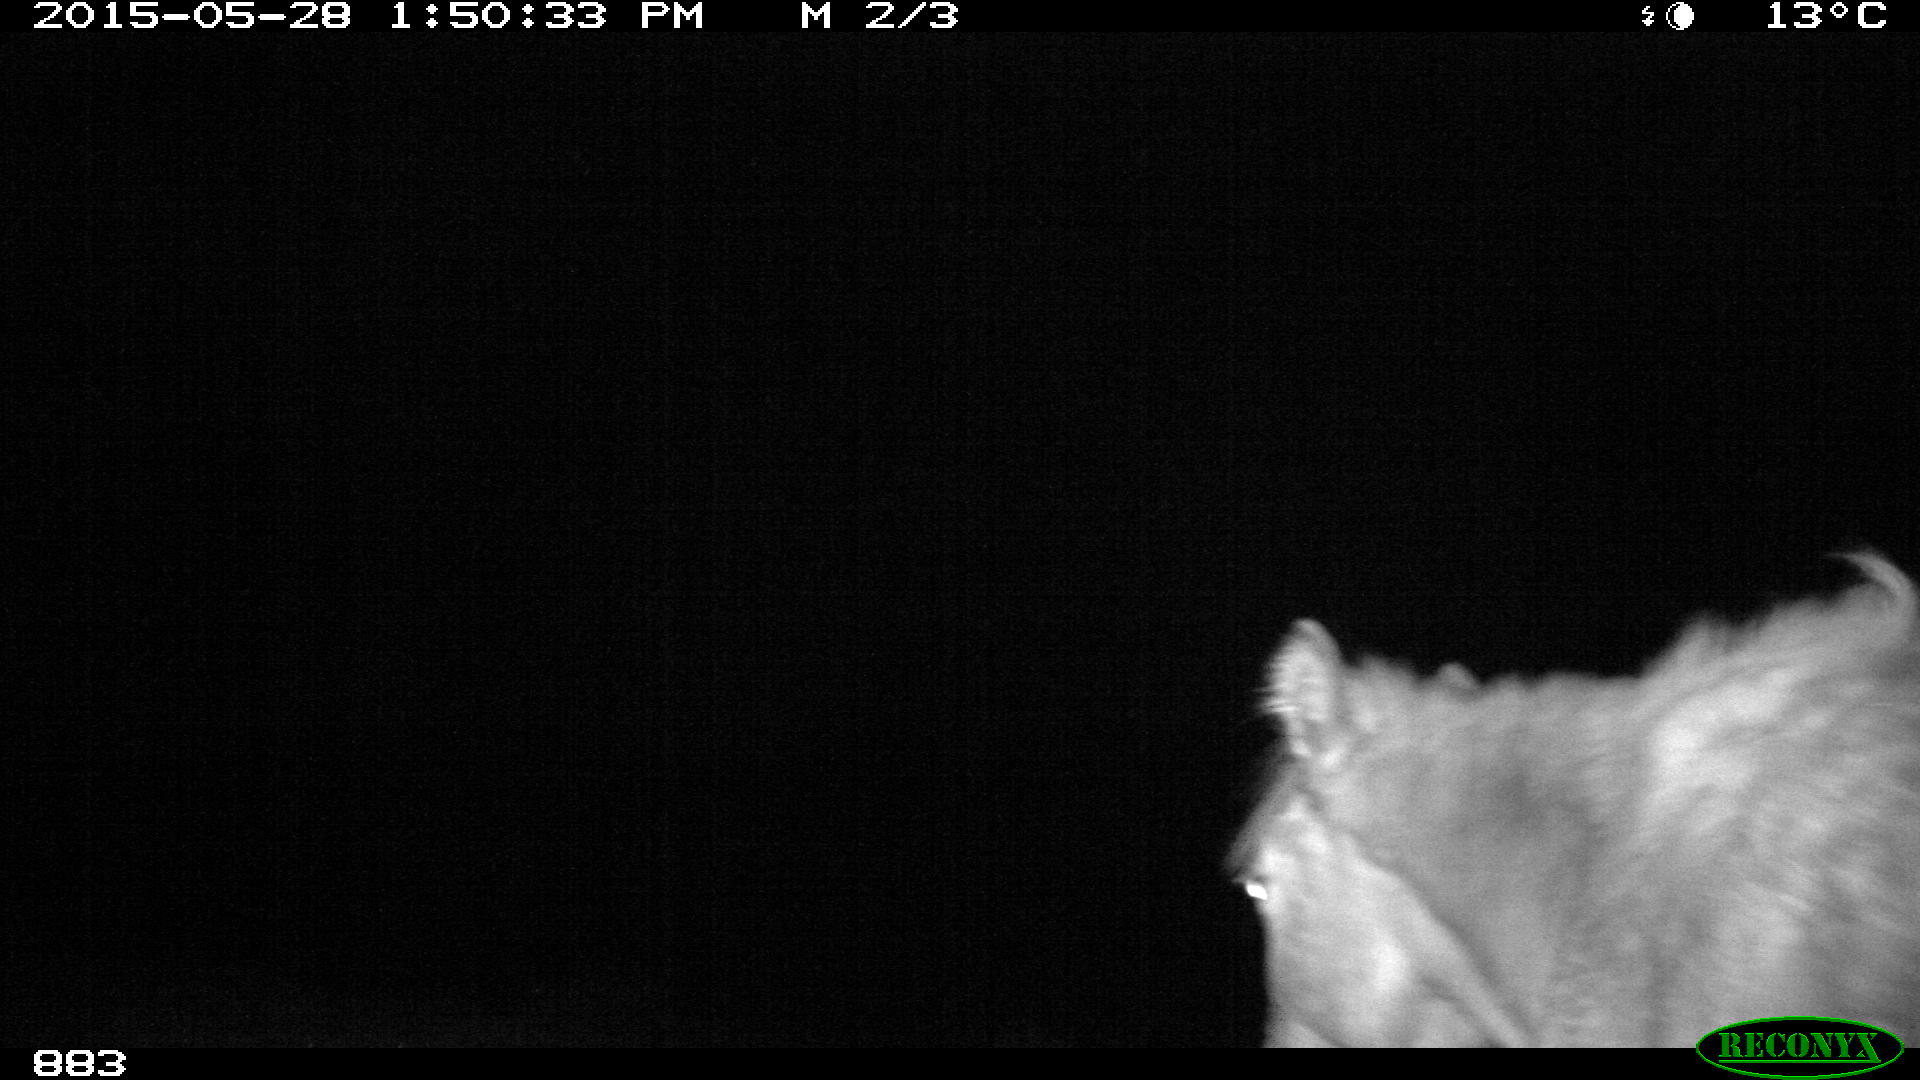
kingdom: Animalia
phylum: Chordata
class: Mammalia
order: Perissodactyla
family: Equidae
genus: Equus
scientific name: Equus caballus
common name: Horse
